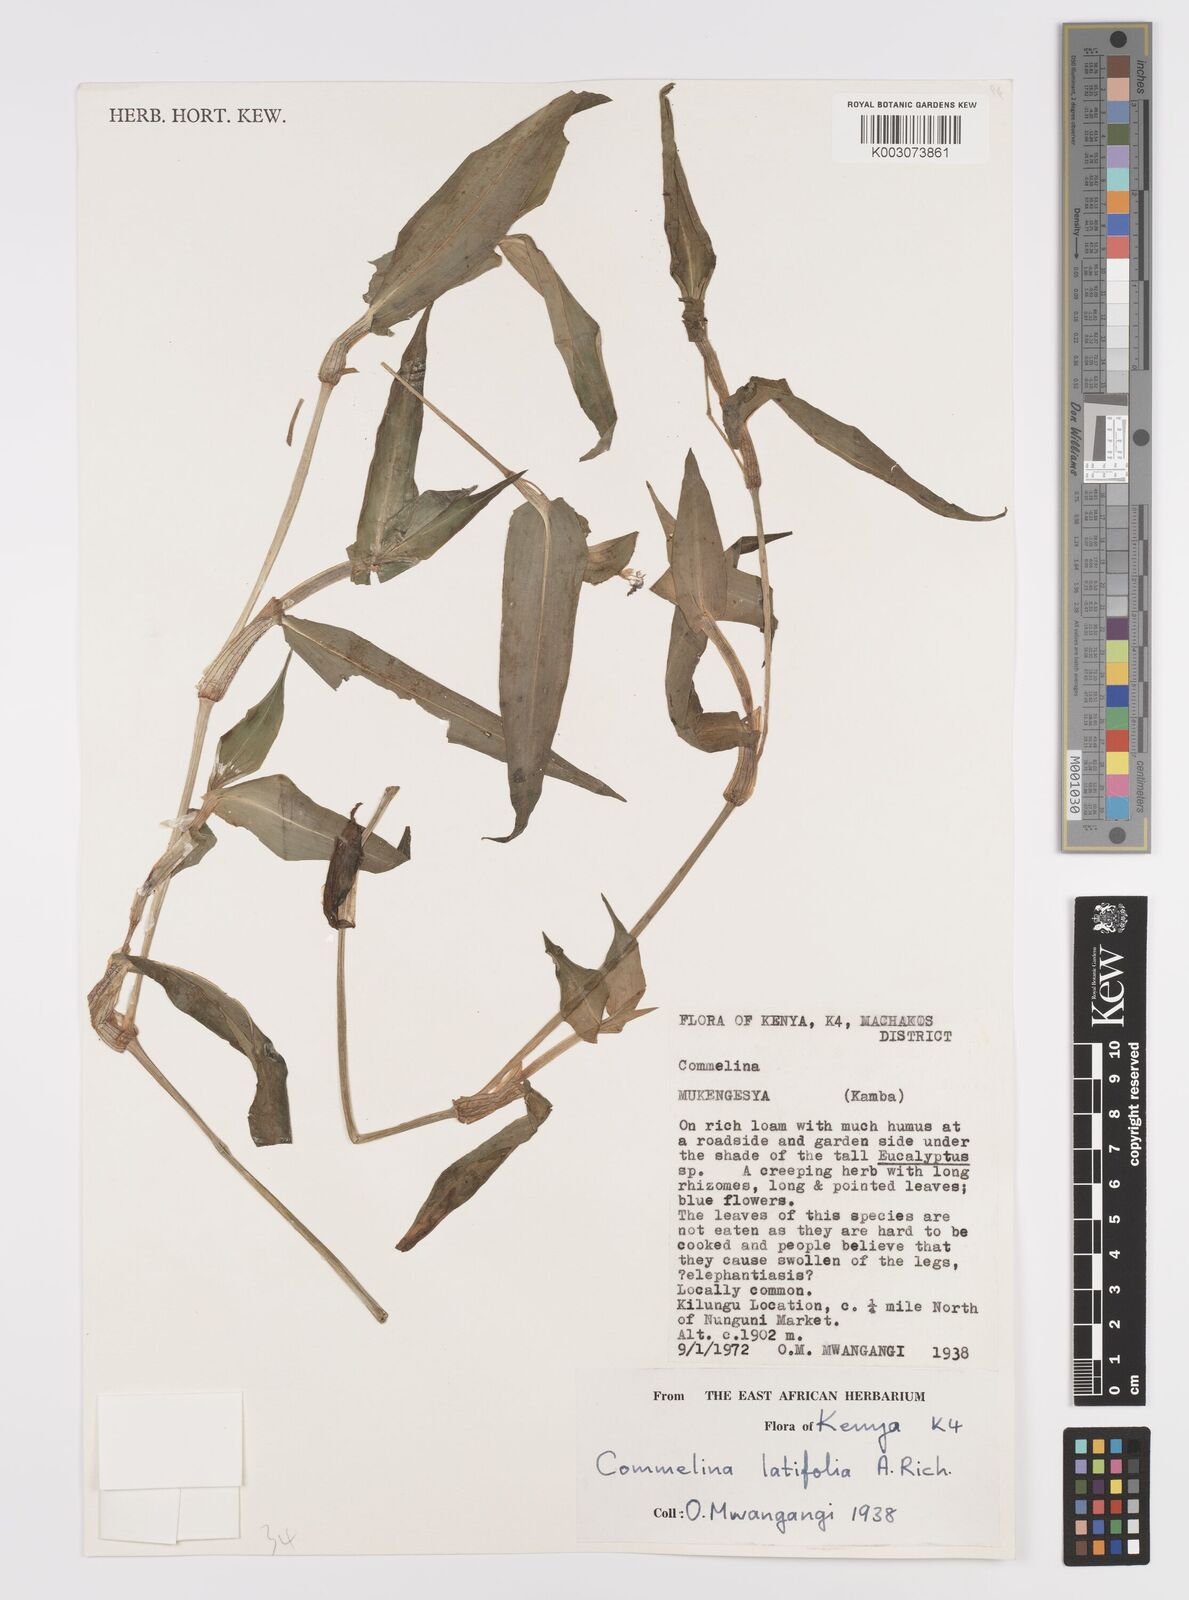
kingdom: Plantae
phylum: Tracheophyta
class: Liliopsida
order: Commelinales
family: Commelinaceae
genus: Commelina
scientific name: Commelina latifolia
